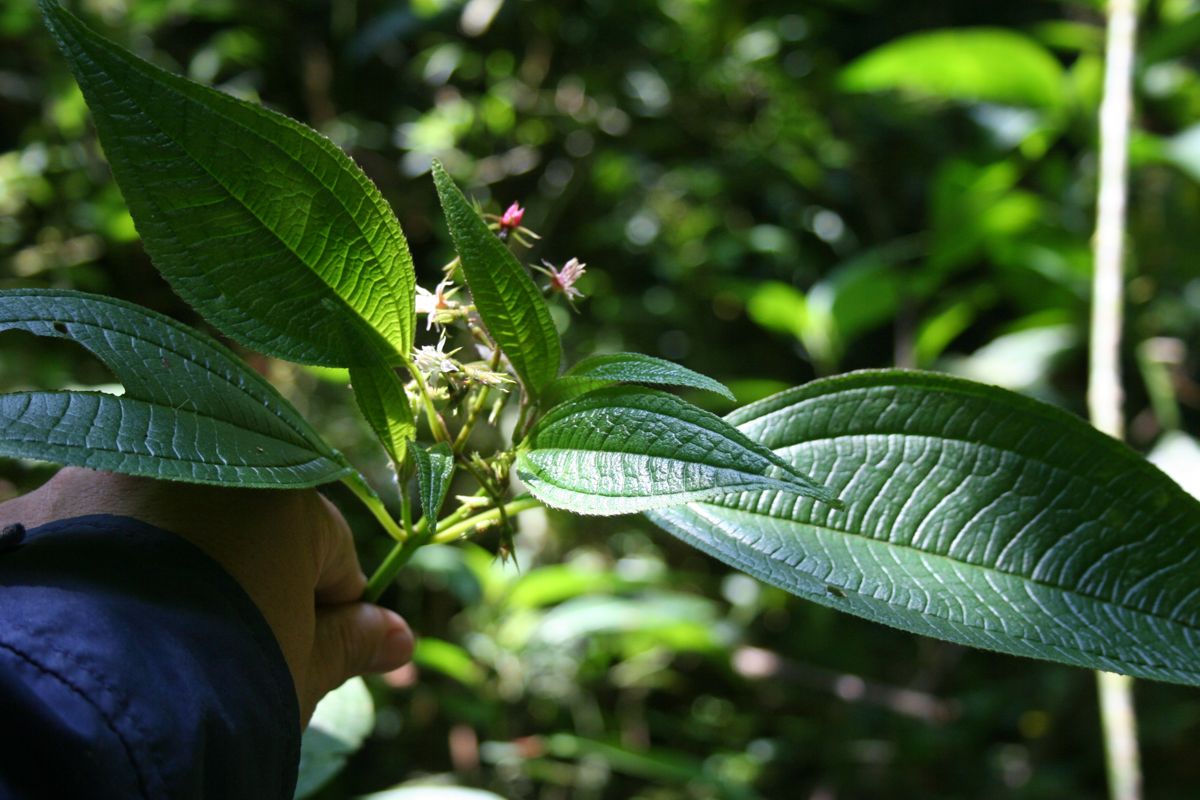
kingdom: Plantae
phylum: Tracheophyta
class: Magnoliopsida
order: Myrtales
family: Melastomataceae
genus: Miconia
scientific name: Miconia oocarpa
